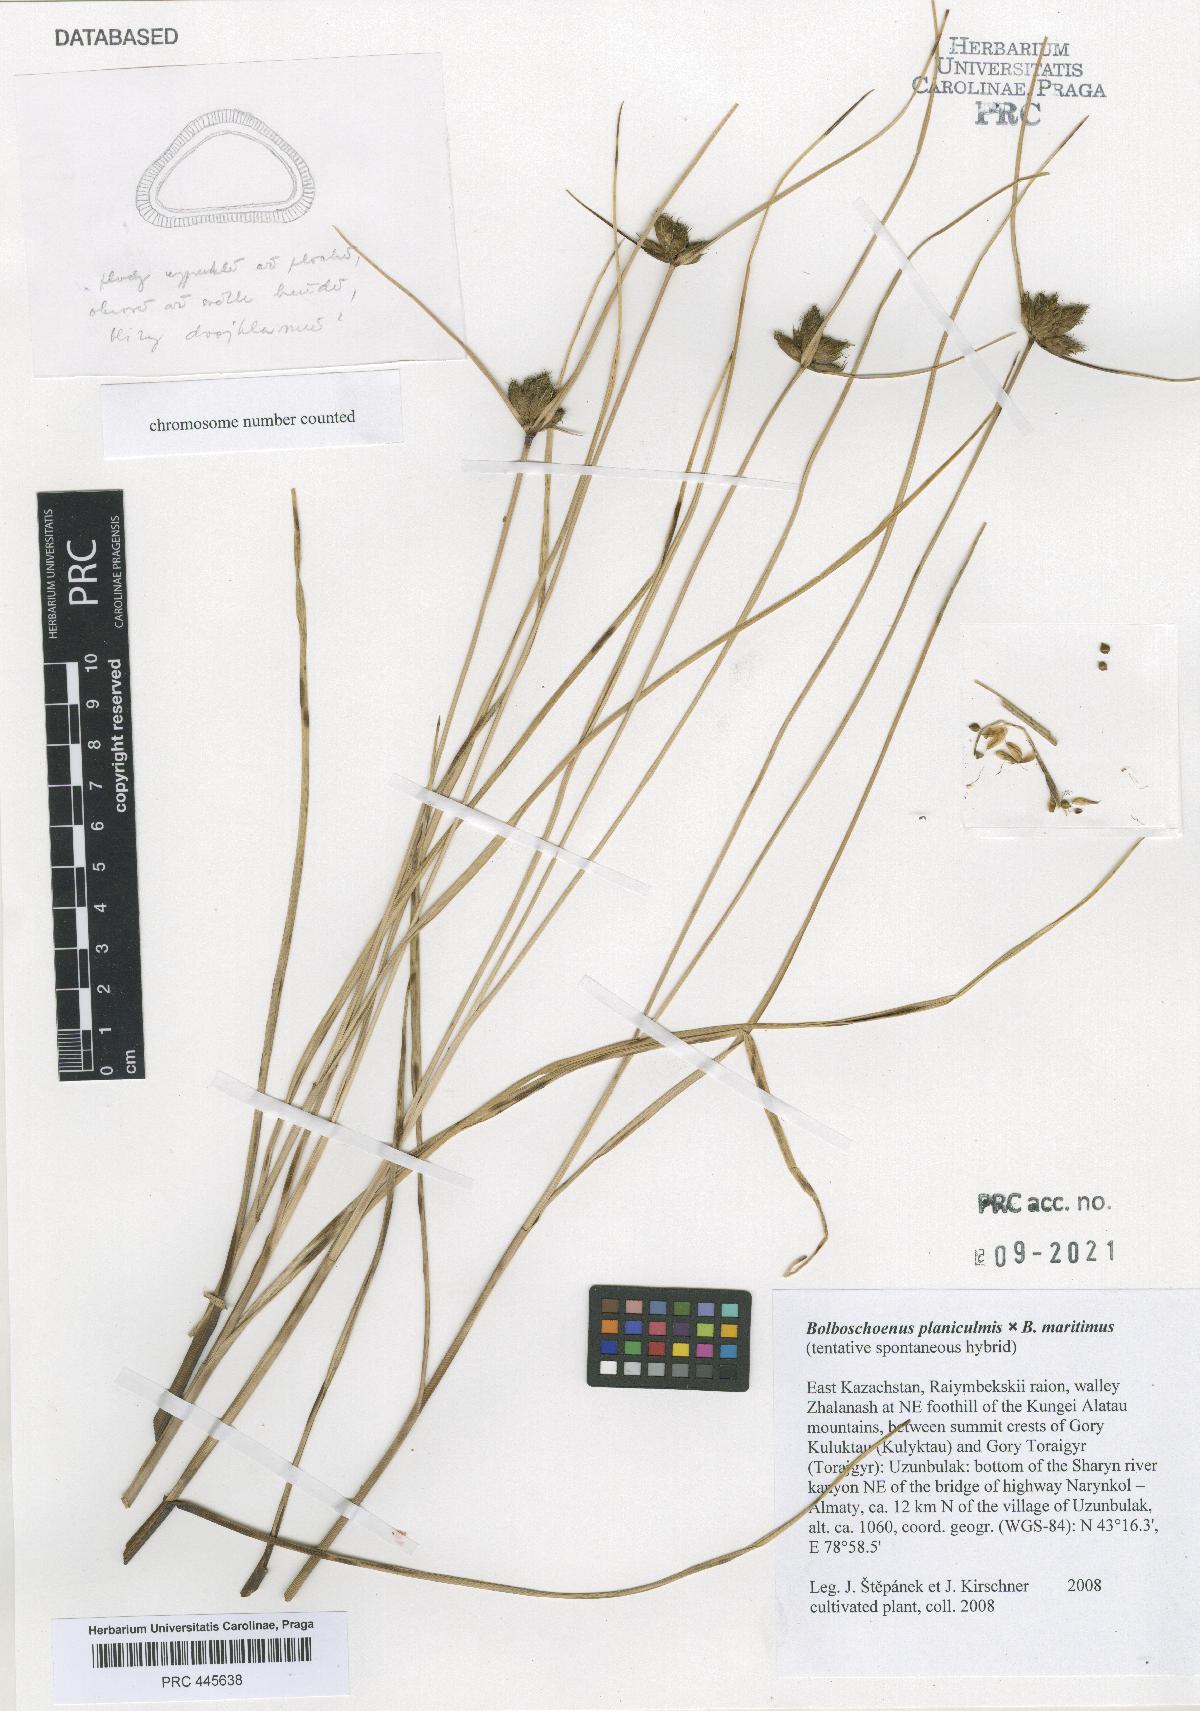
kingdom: Plantae
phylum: Tracheophyta
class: Liliopsida
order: Poales
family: Cyperaceae
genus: Bolboschoenus
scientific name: Bolboschoenus
